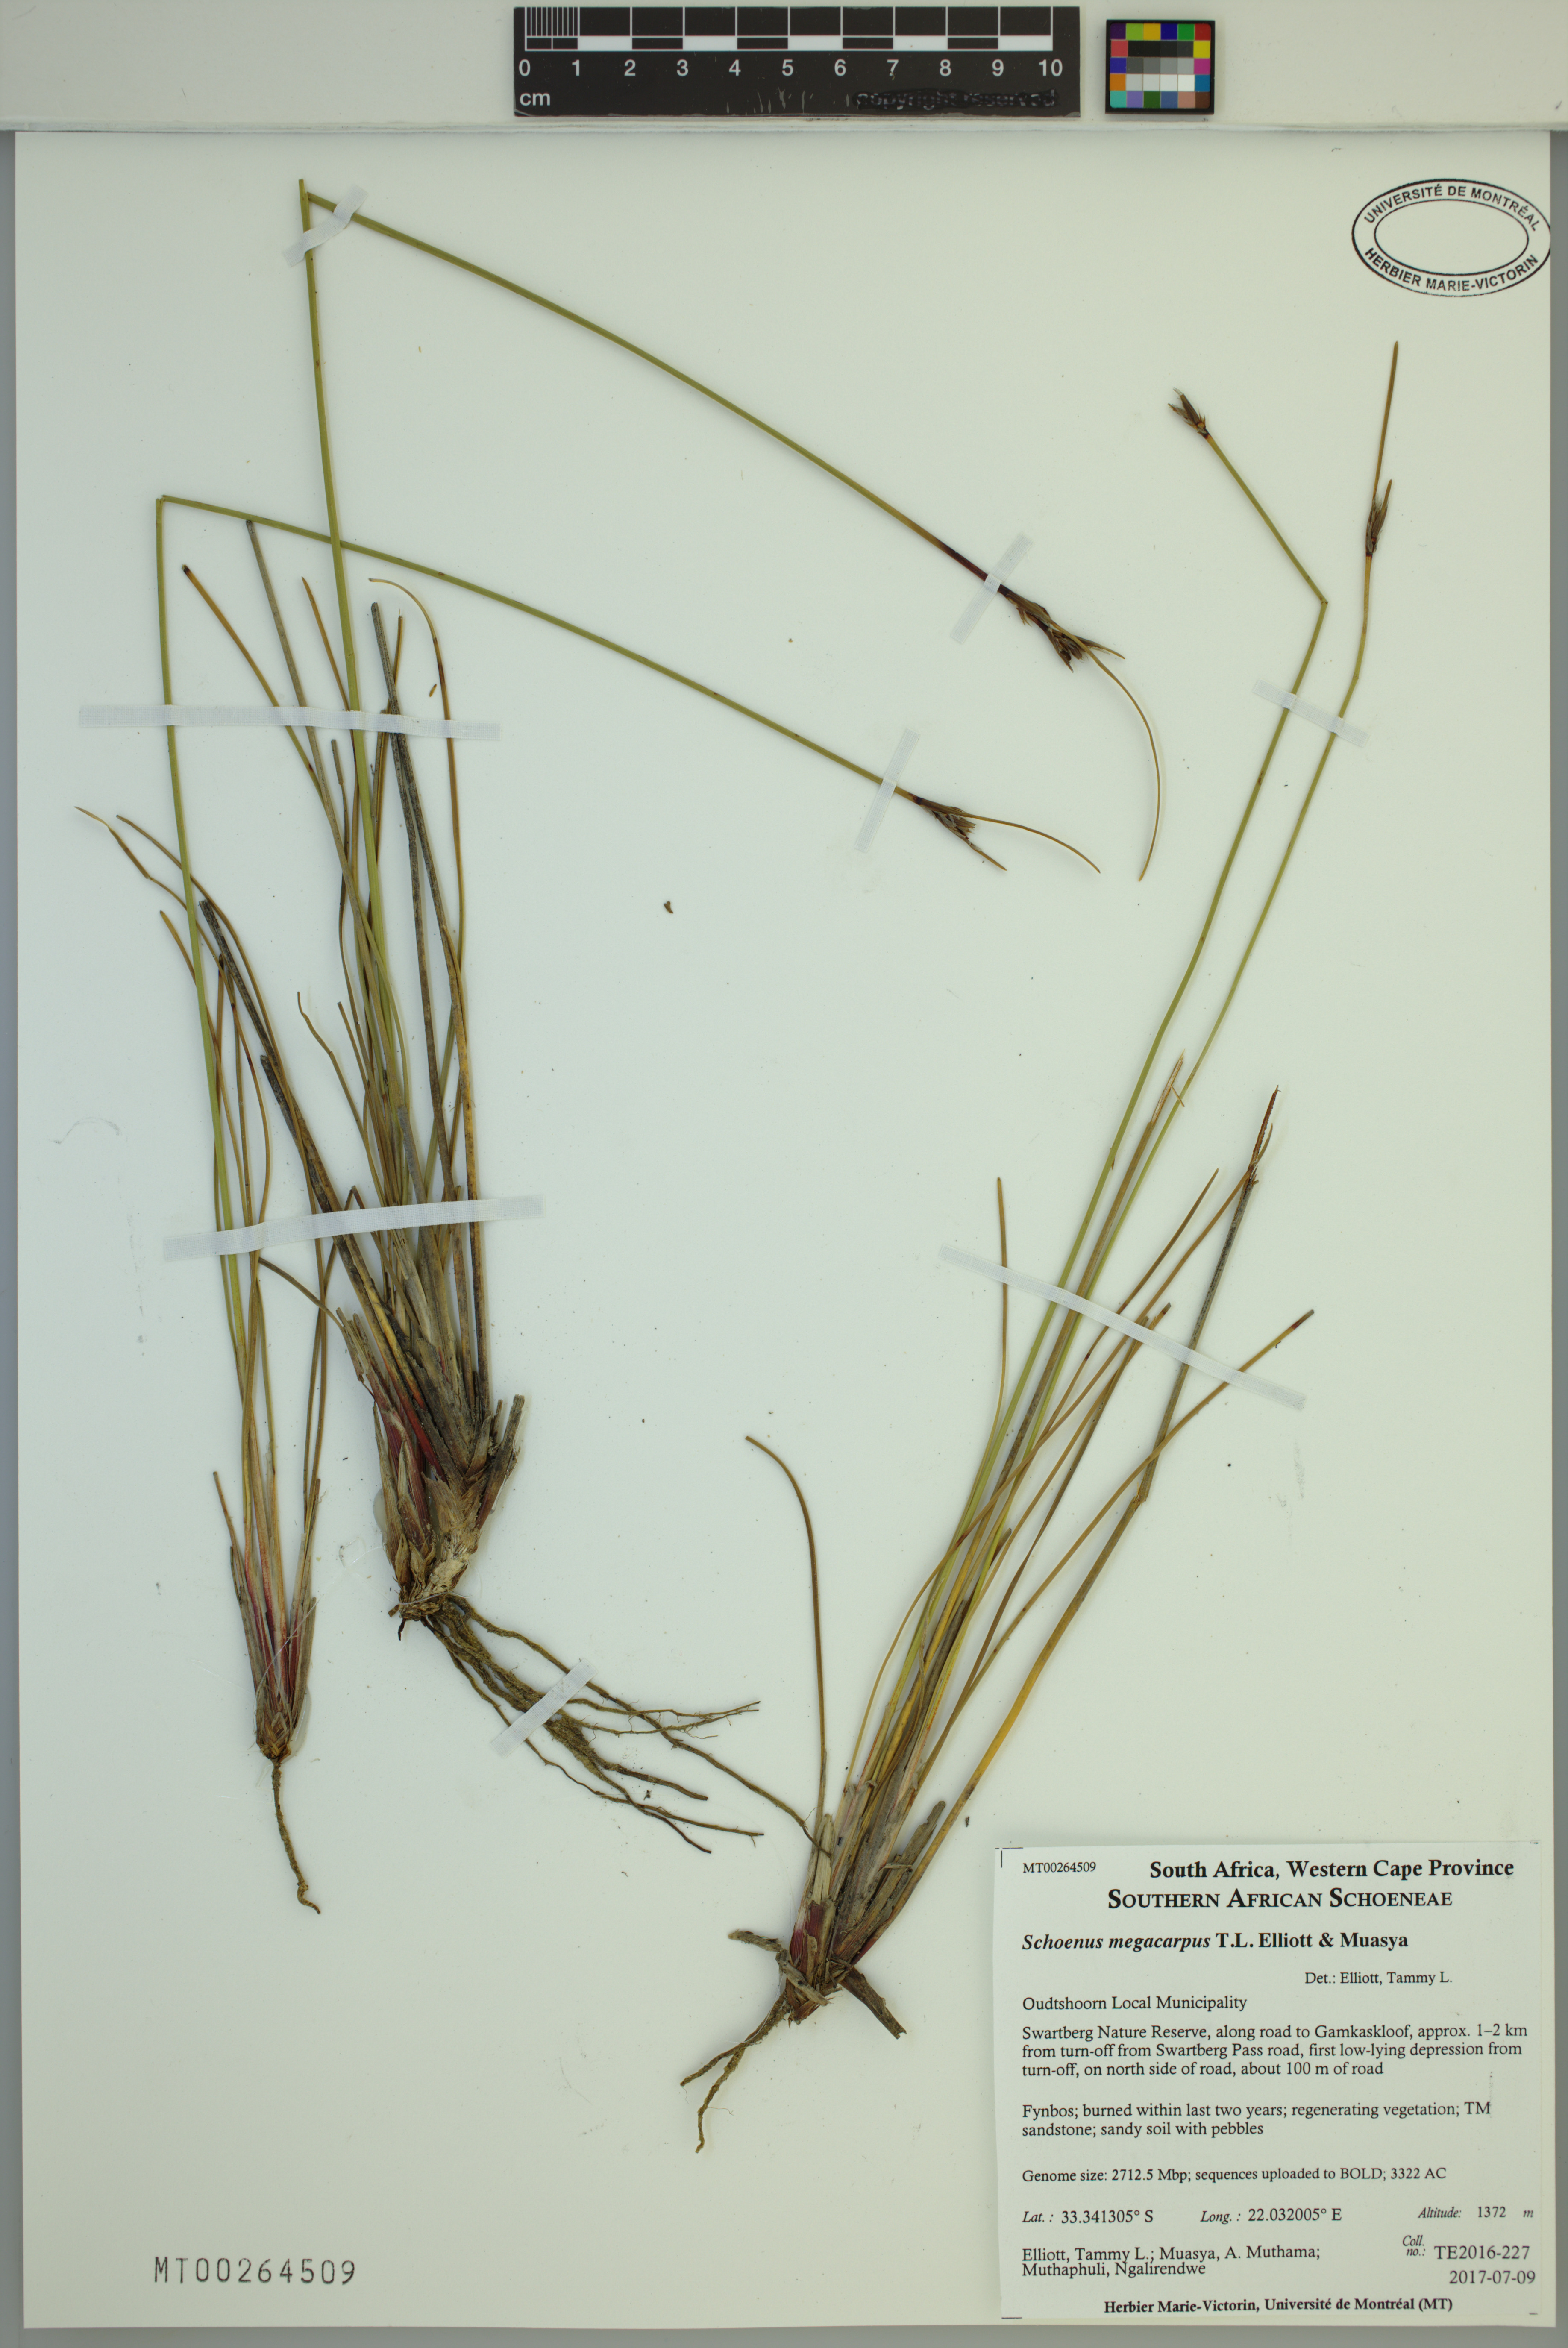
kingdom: Plantae
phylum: Tracheophyta
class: Liliopsida
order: Poales
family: Cyperaceae
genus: Schoenus
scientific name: Schoenus megacarpus
